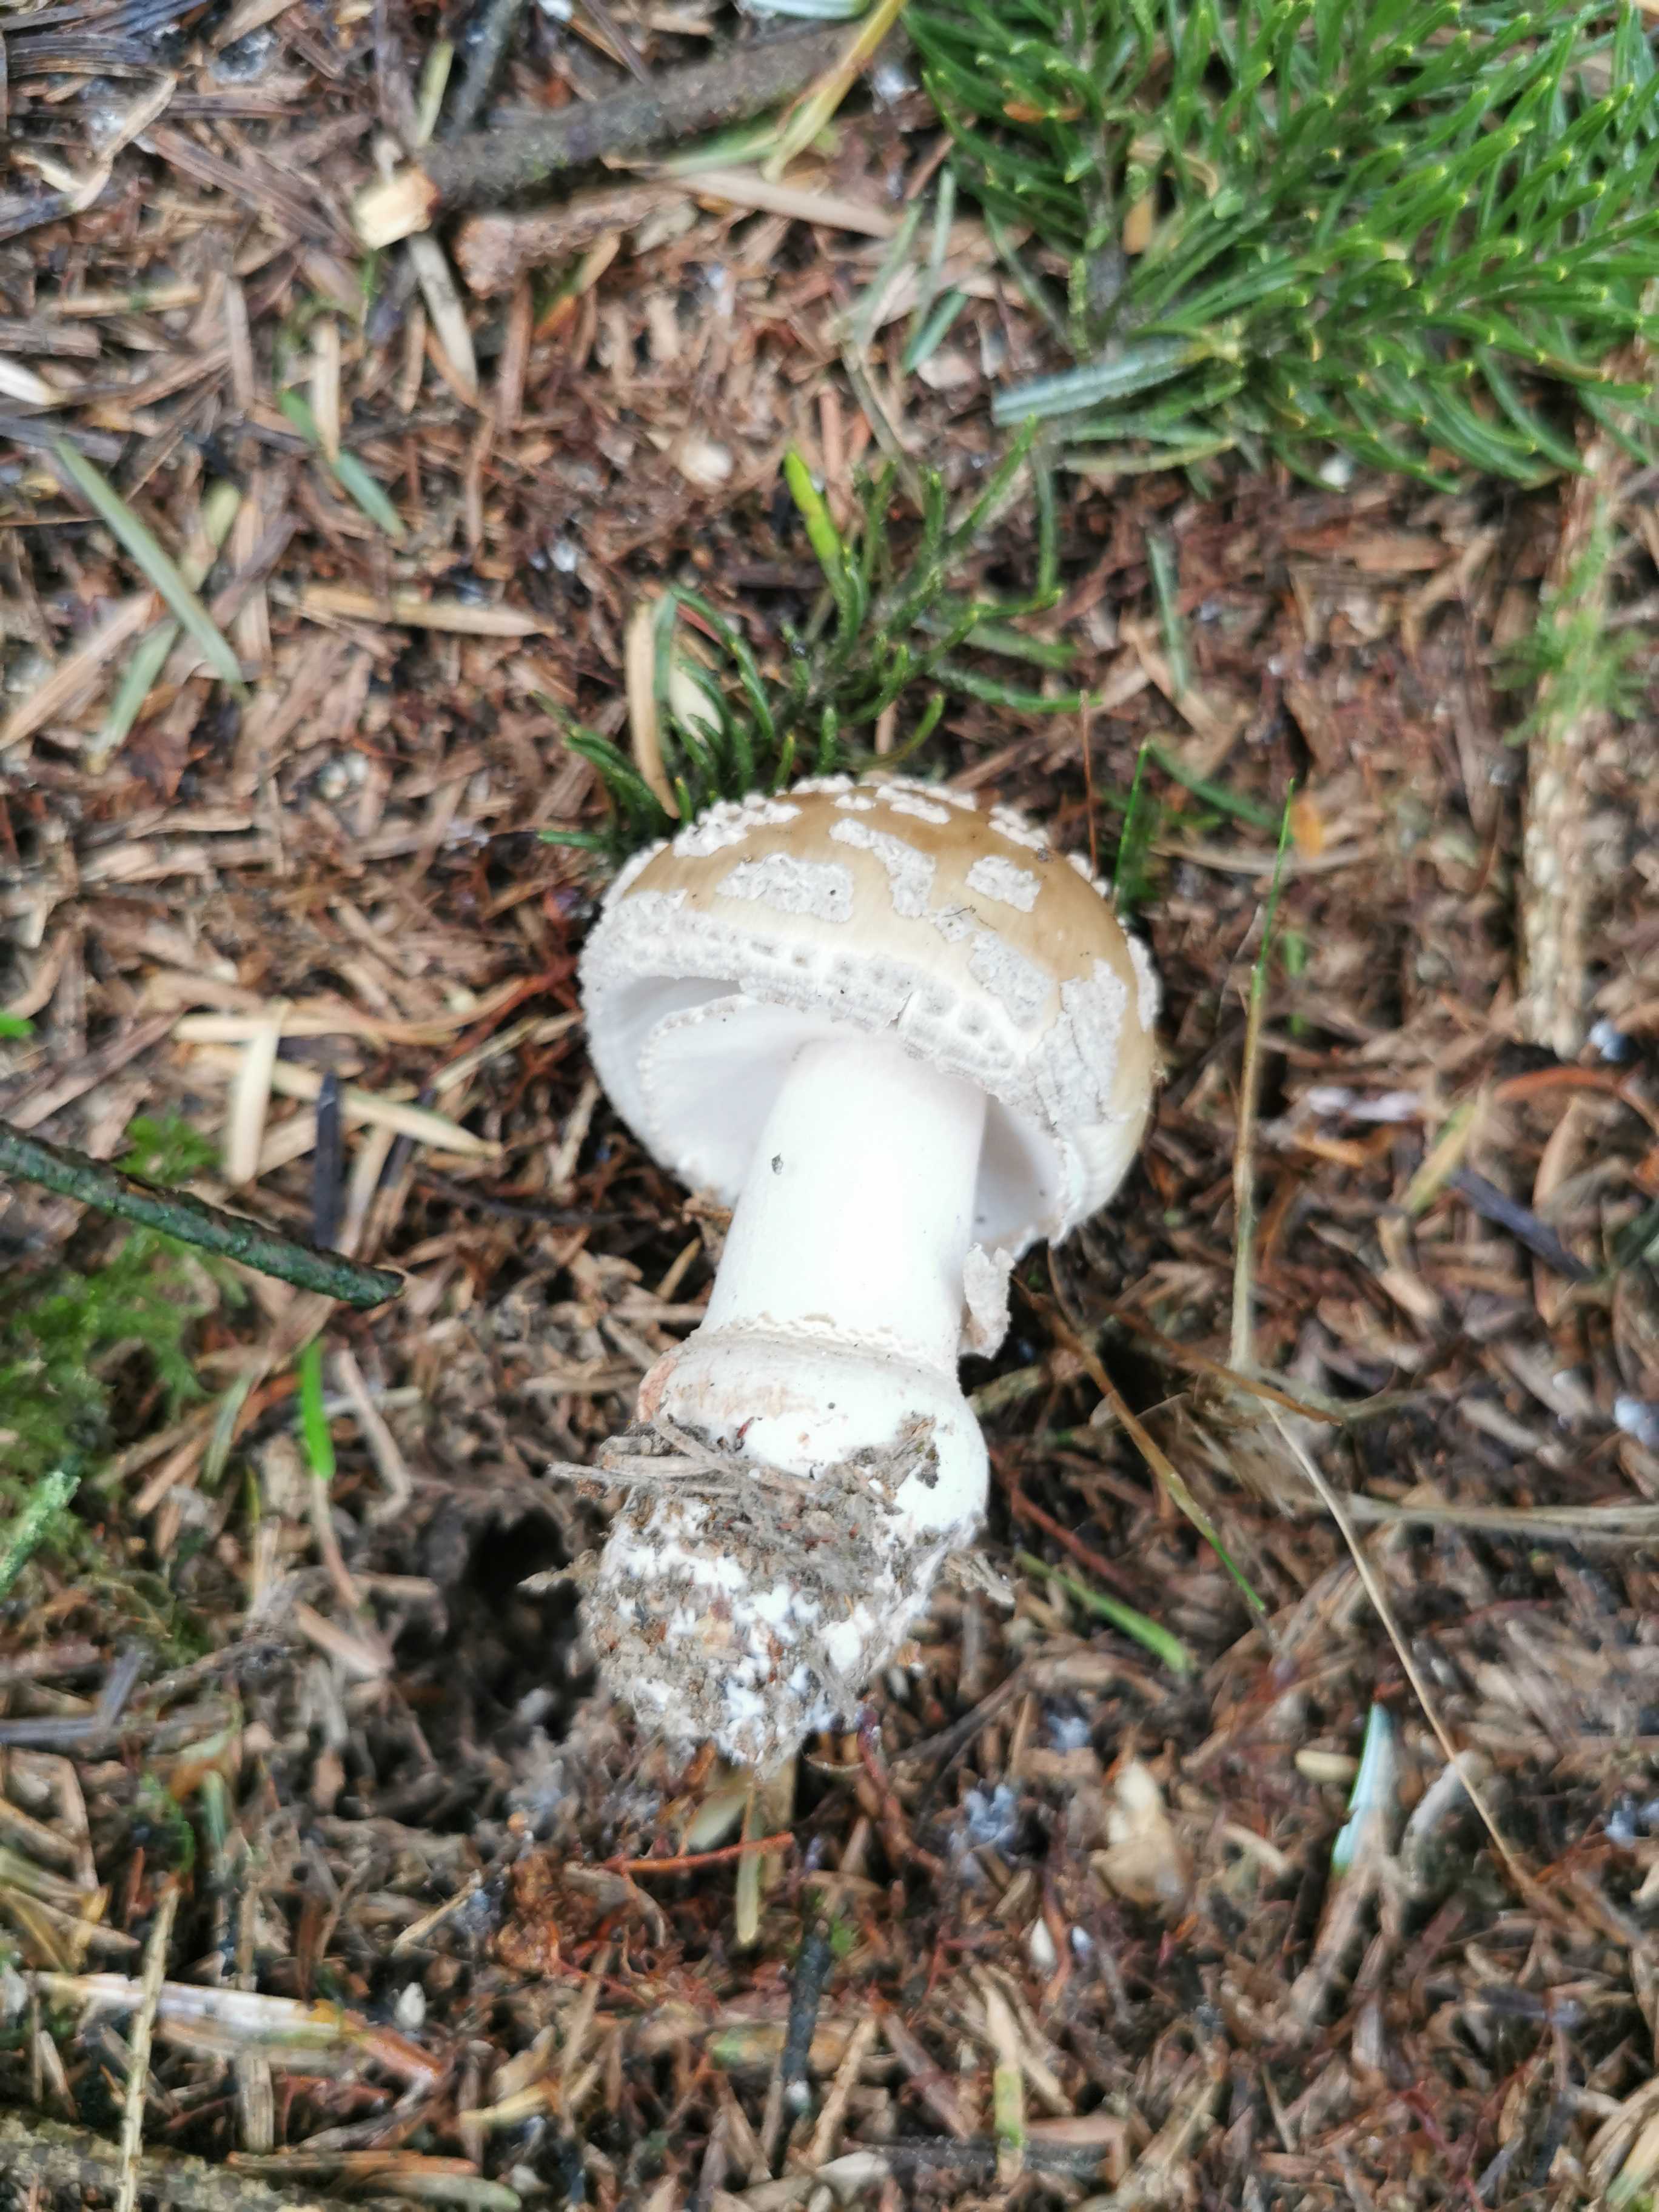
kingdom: Fungi
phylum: Basidiomycota
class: Agaricomycetes
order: Agaricales
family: Amanitaceae
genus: Amanita
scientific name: Amanita
